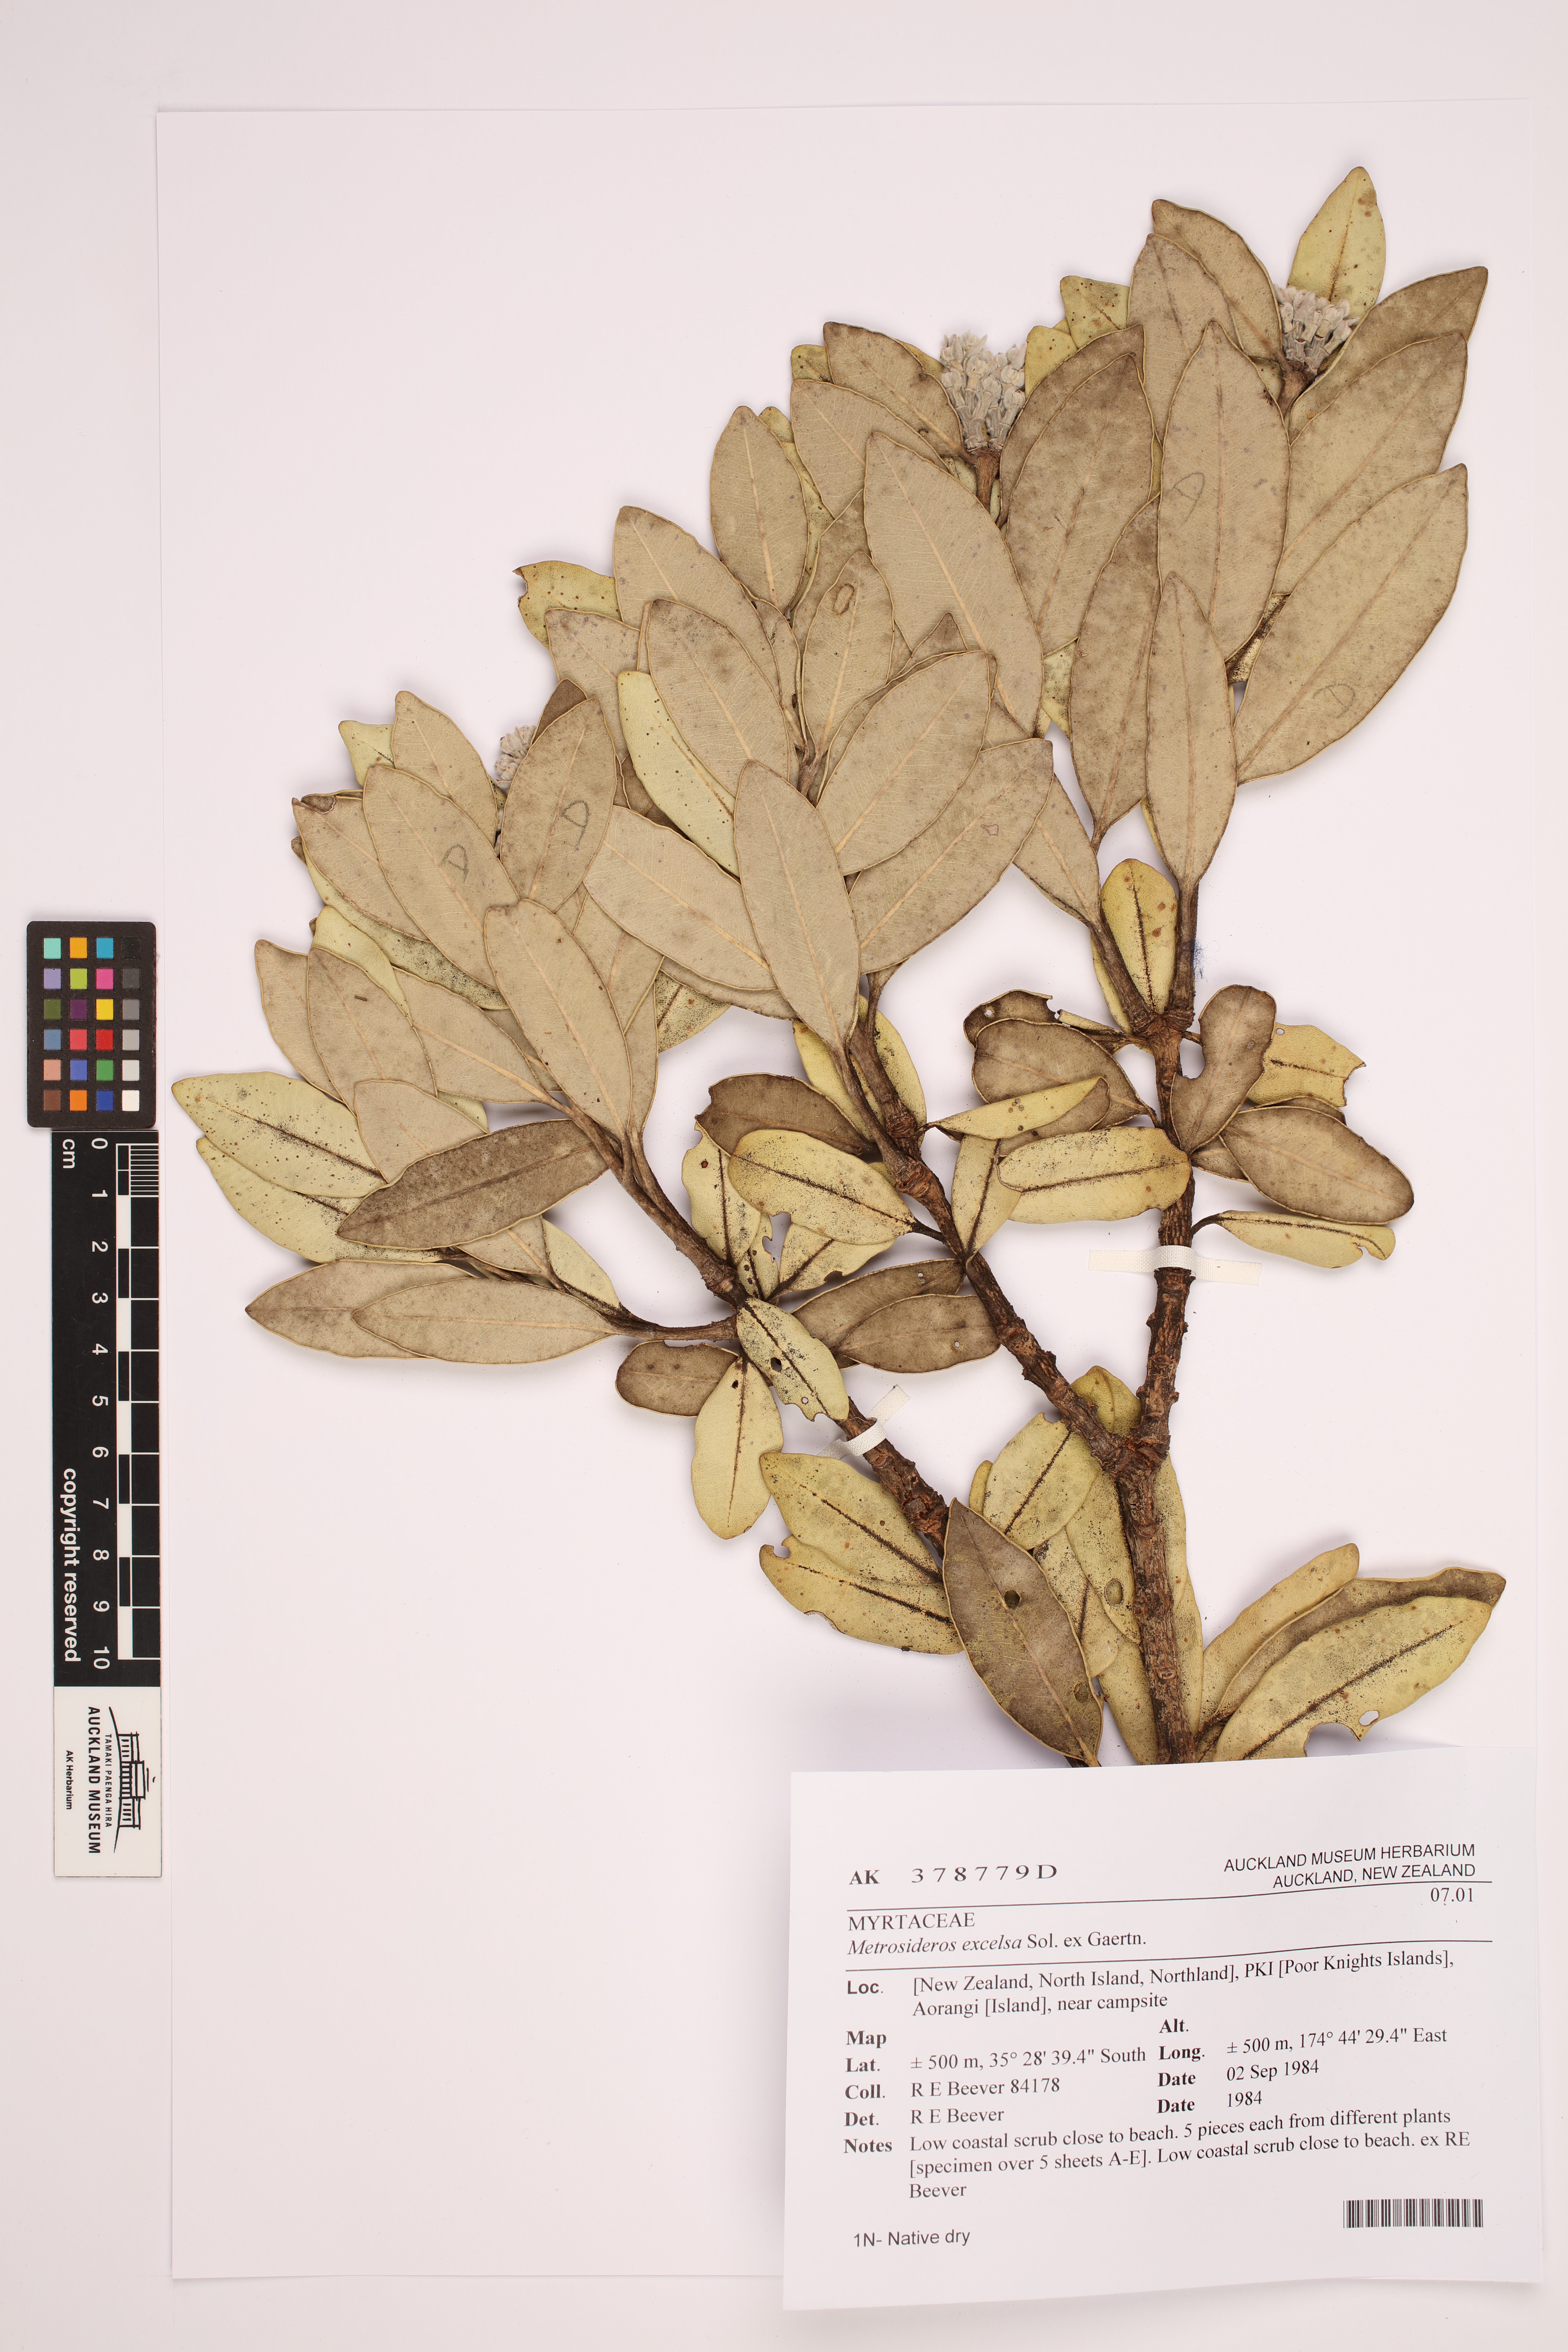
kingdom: Plantae
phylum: Tracheophyta
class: Magnoliopsida
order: Myrtales
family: Myrtaceae
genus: Metrosideros
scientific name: Metrosideros excelsa
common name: New zealand christmastree
